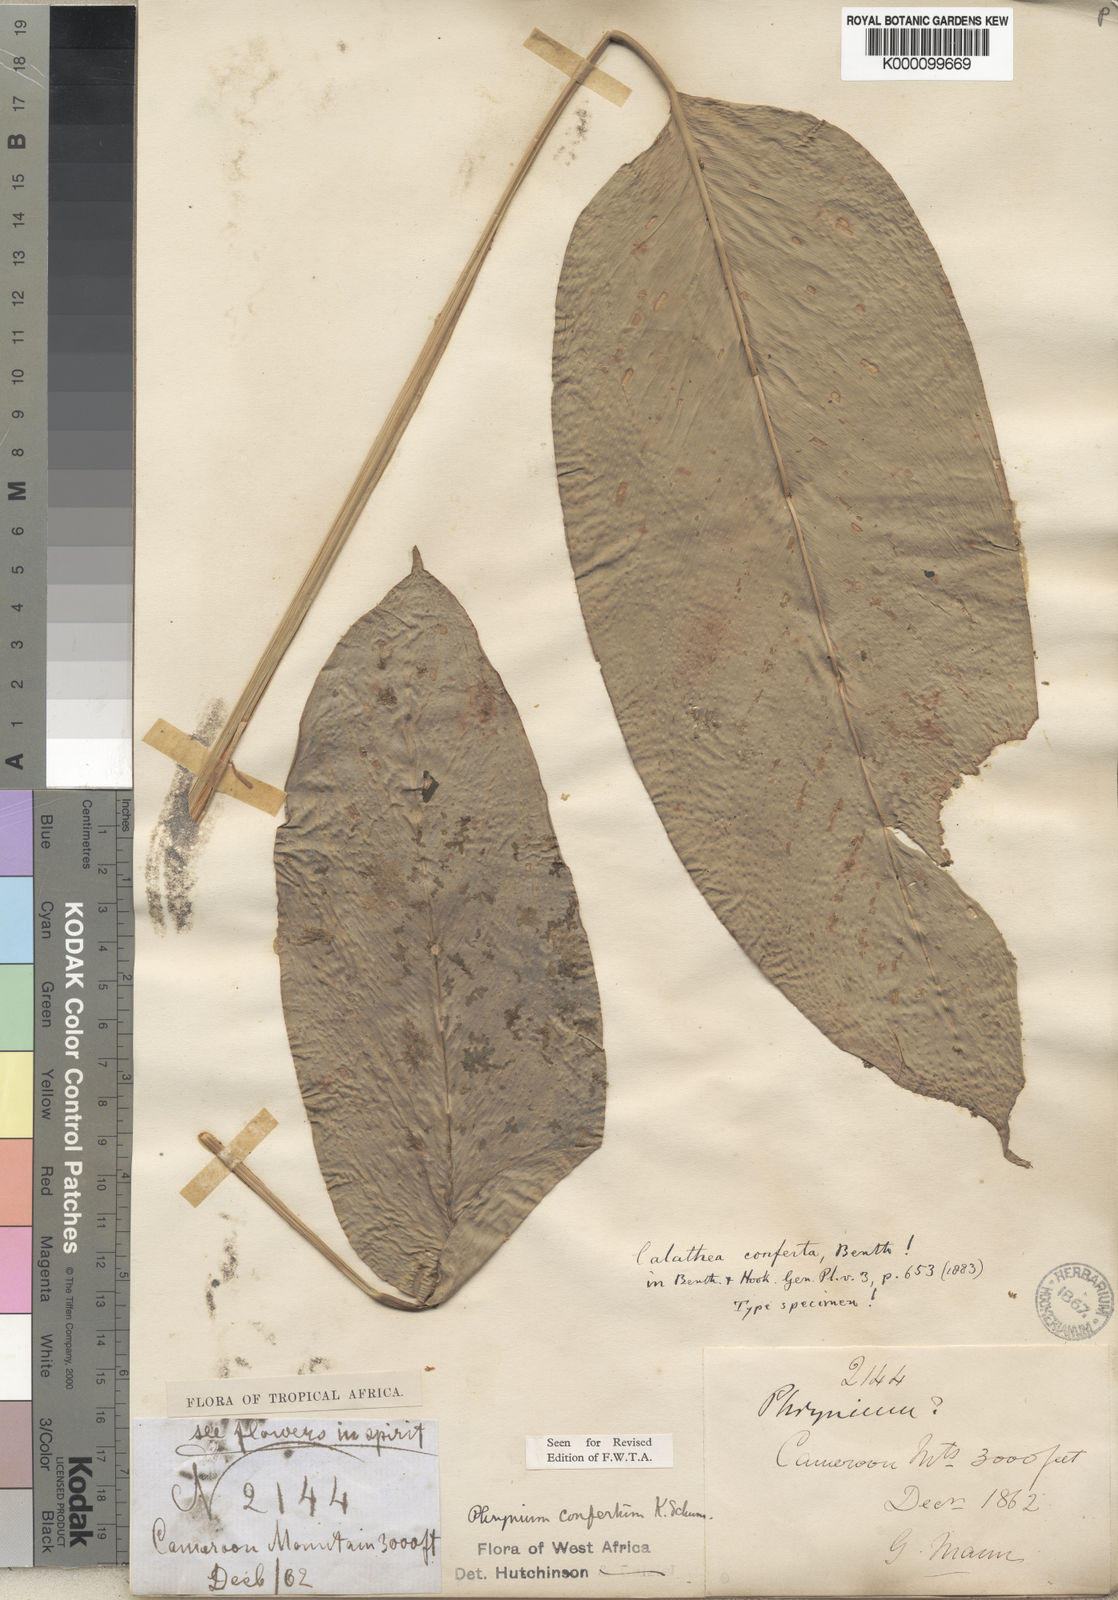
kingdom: Plantae
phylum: Tracheophyta
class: Liliopsida
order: Zingiberales
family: Marantaceae
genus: Marantochloa
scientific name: Marantochloa conferta
